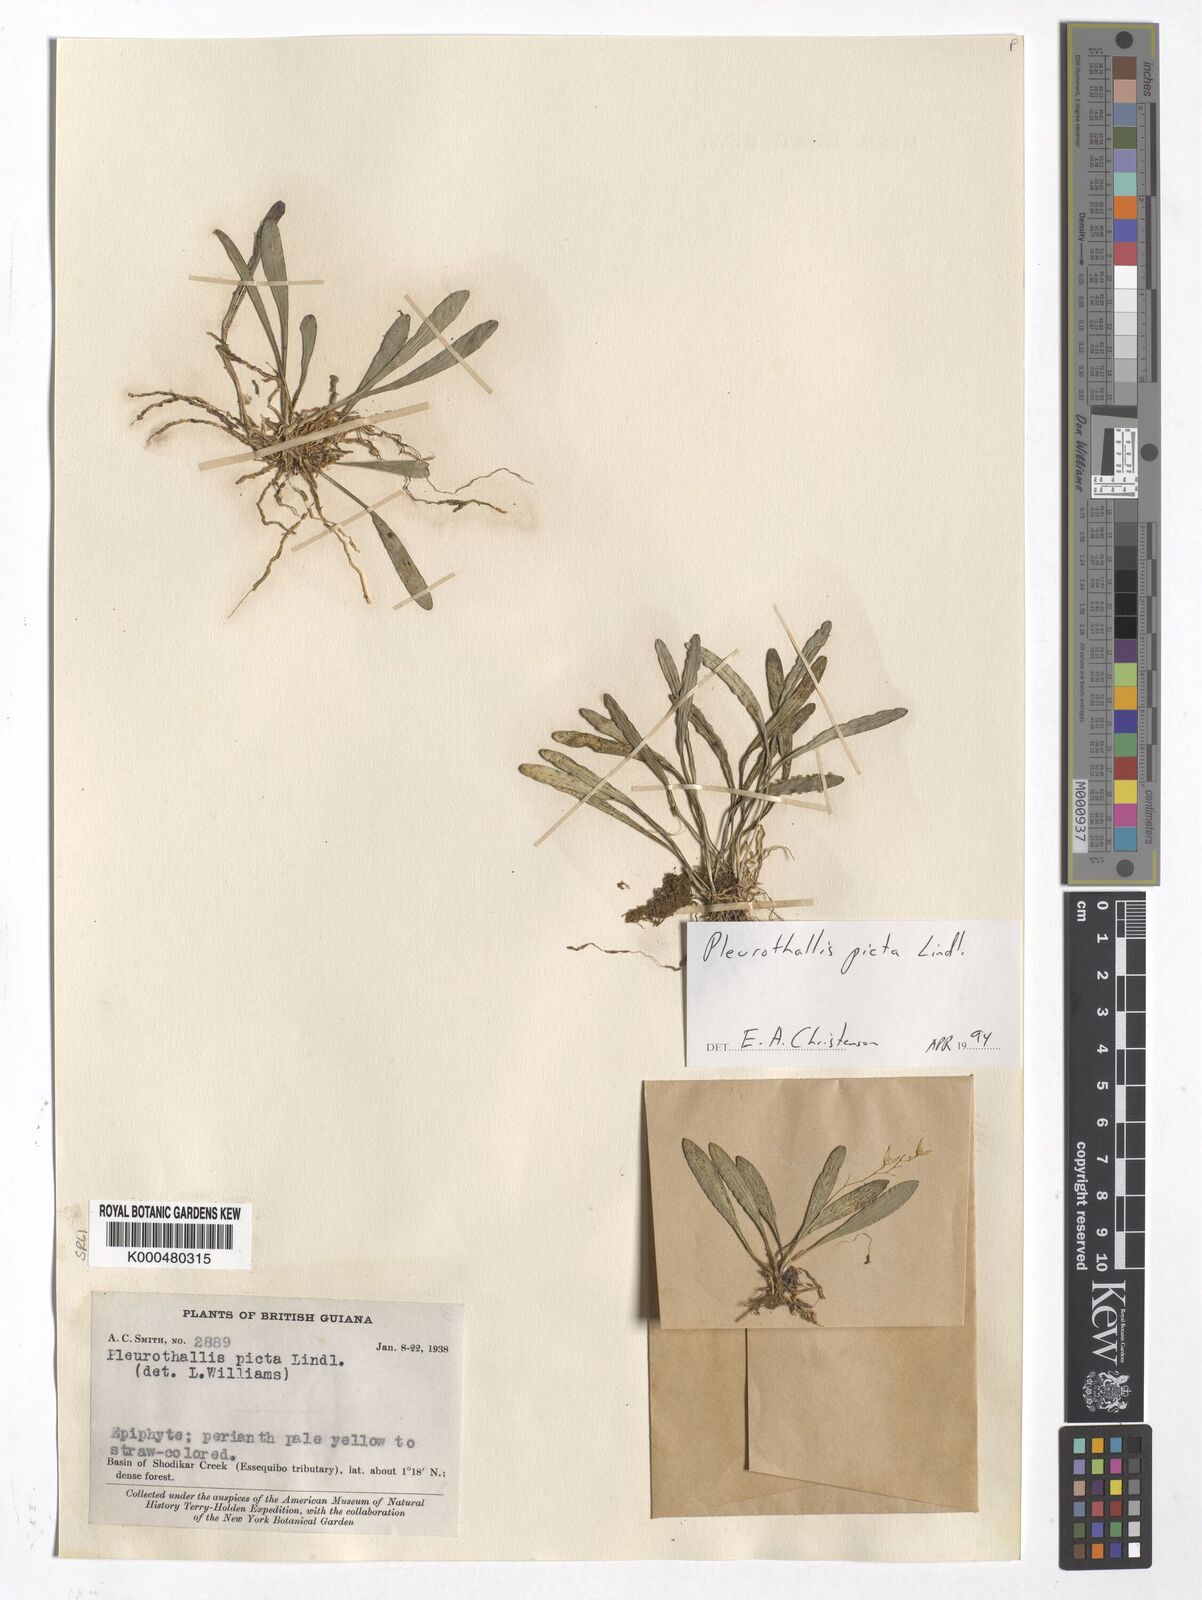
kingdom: Plantae
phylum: Tracheophyta
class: Liliopsida
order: Asparagales
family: Orchidaceae
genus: Specklinia
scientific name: Specklinia picta
